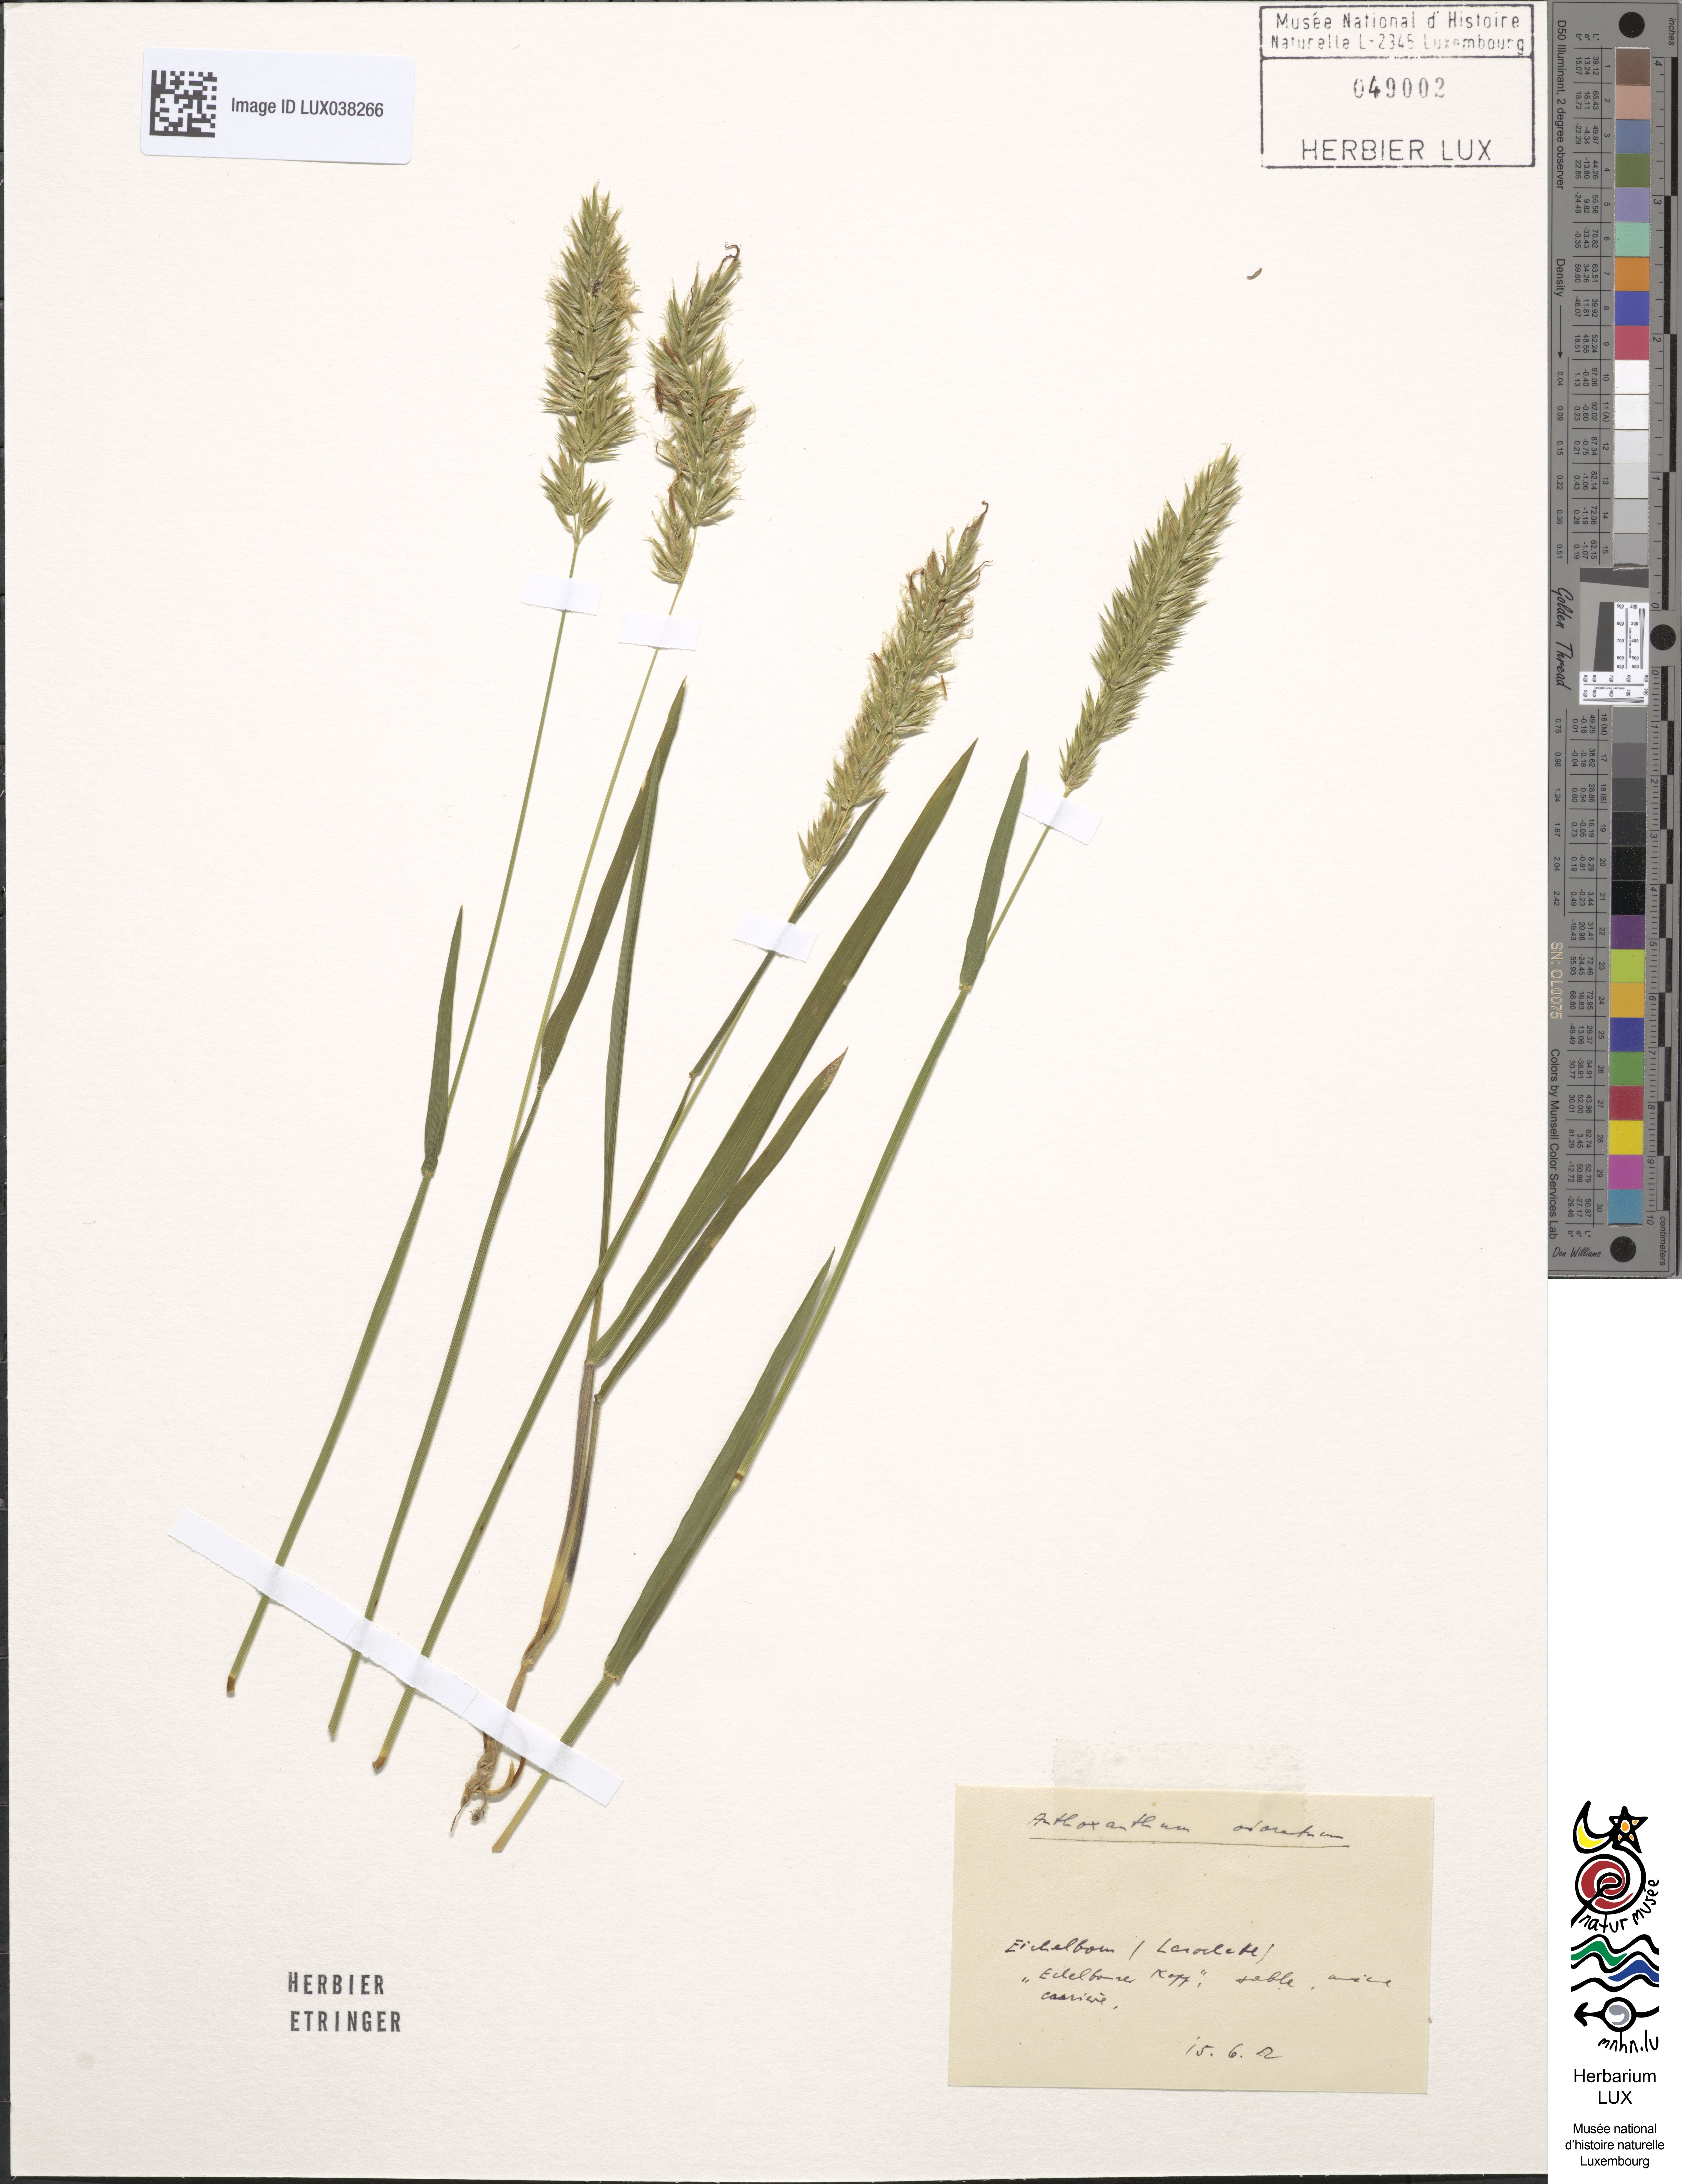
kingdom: Plantae
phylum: Tracheophyta
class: Liliopsida
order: Poales
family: Poaceae
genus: Anthoxanthum
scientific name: Anthoxanthum odoratum
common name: Sweet vernalgrass
